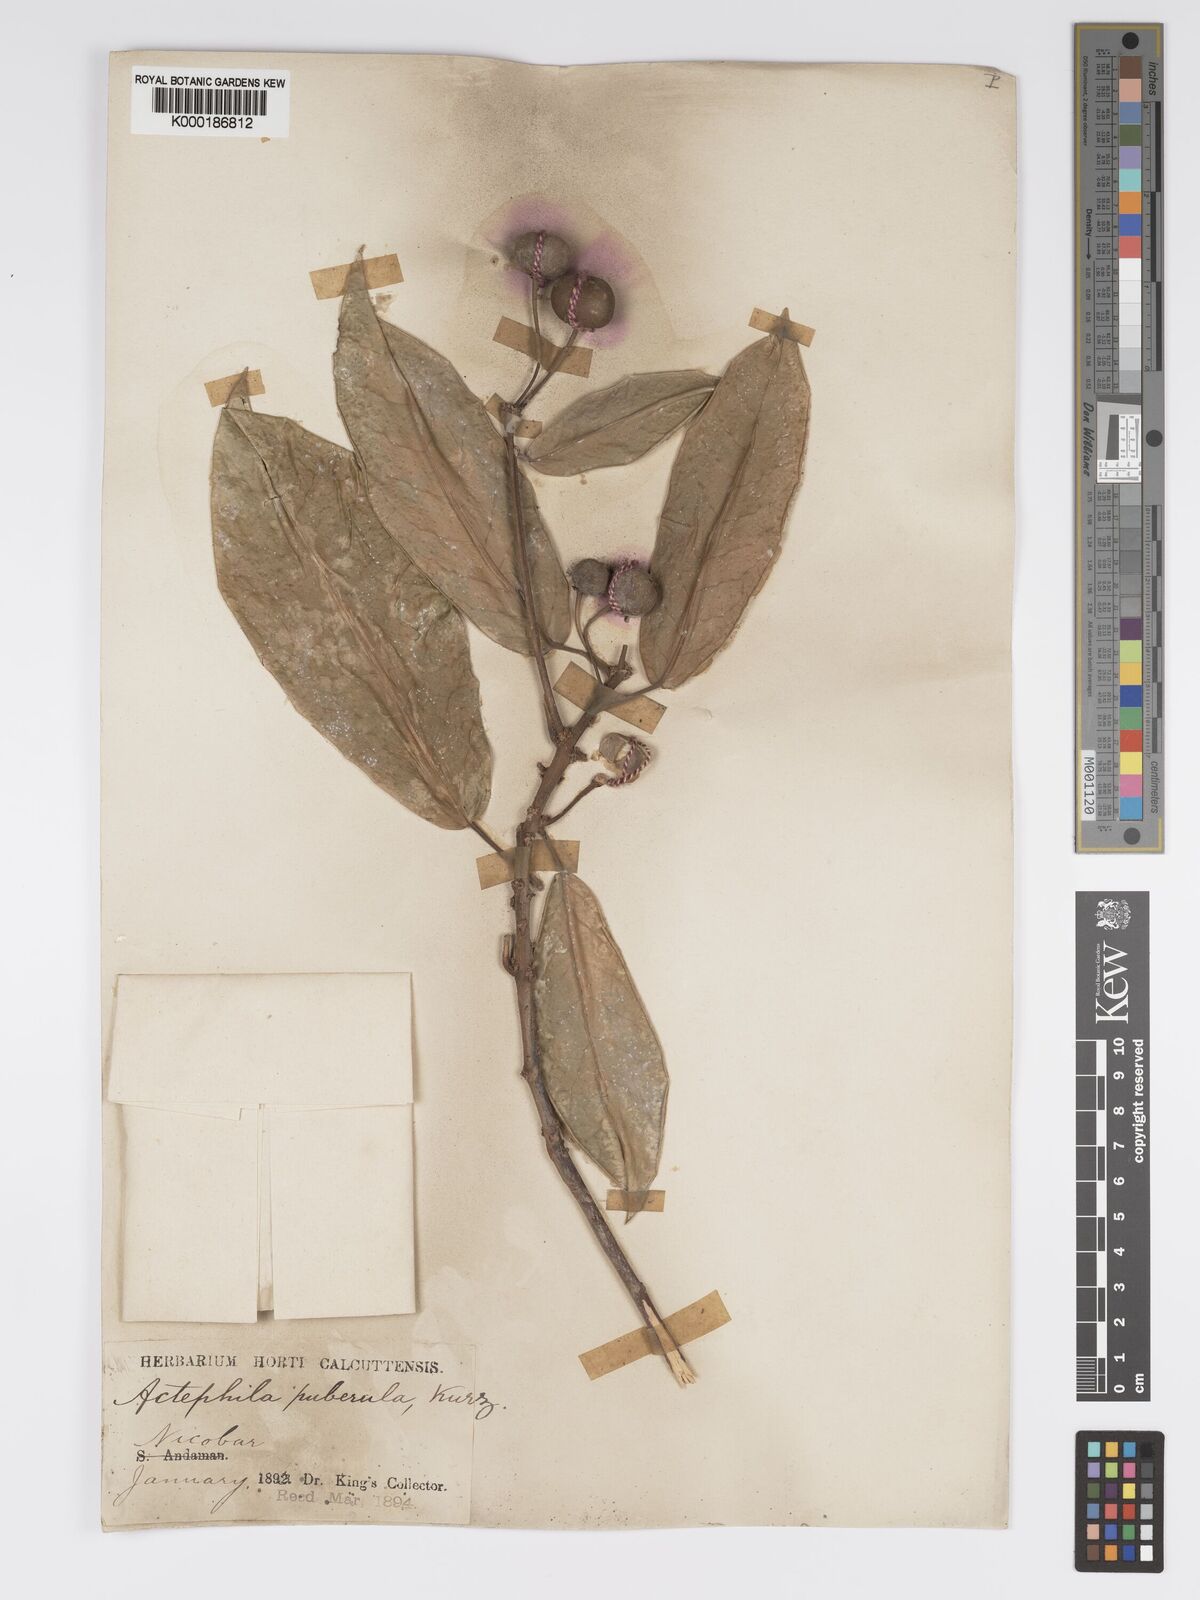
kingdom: Plantae
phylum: Tracheophyta
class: Magnoliopsida
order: Malpighiales
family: Phyllanthaceae
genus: Actephila
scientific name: Actephila excelsa
